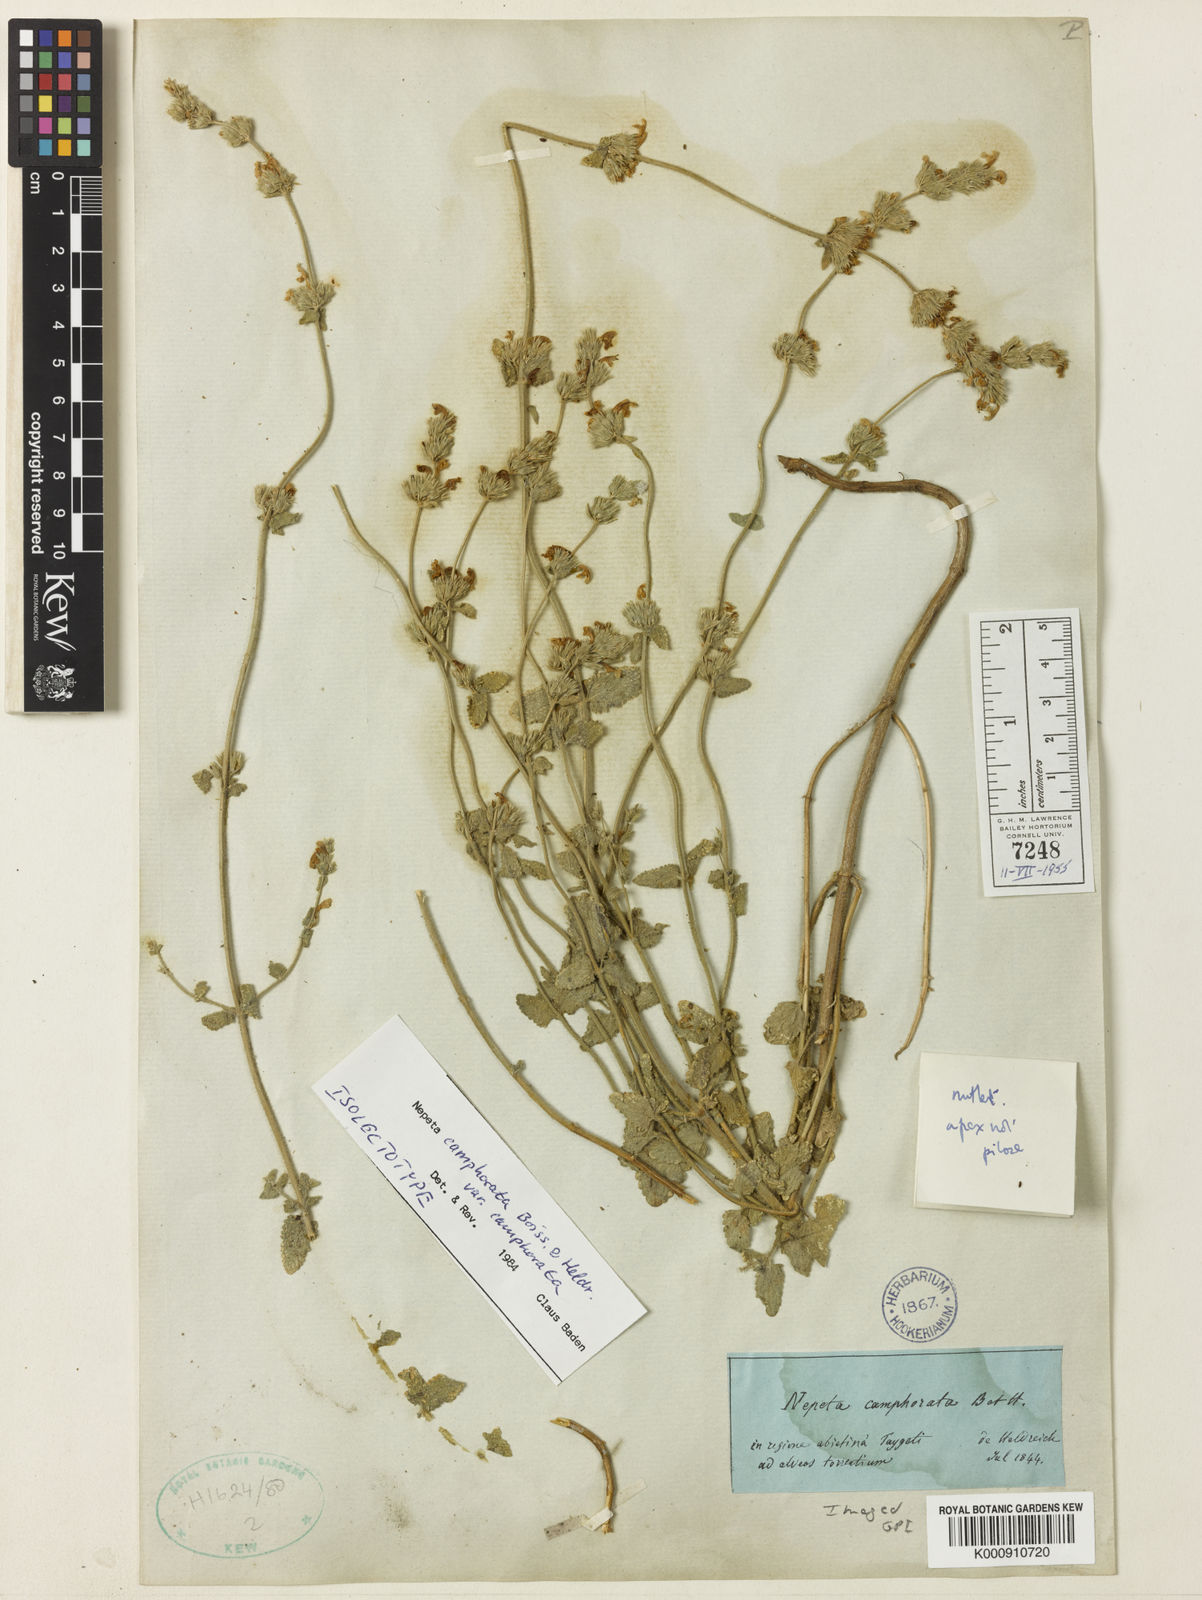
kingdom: Plantae
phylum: Tracheophyta
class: Magnoliopsida
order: Lamiales
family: Lamiaceae
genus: Nepeta
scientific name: Nepeta
